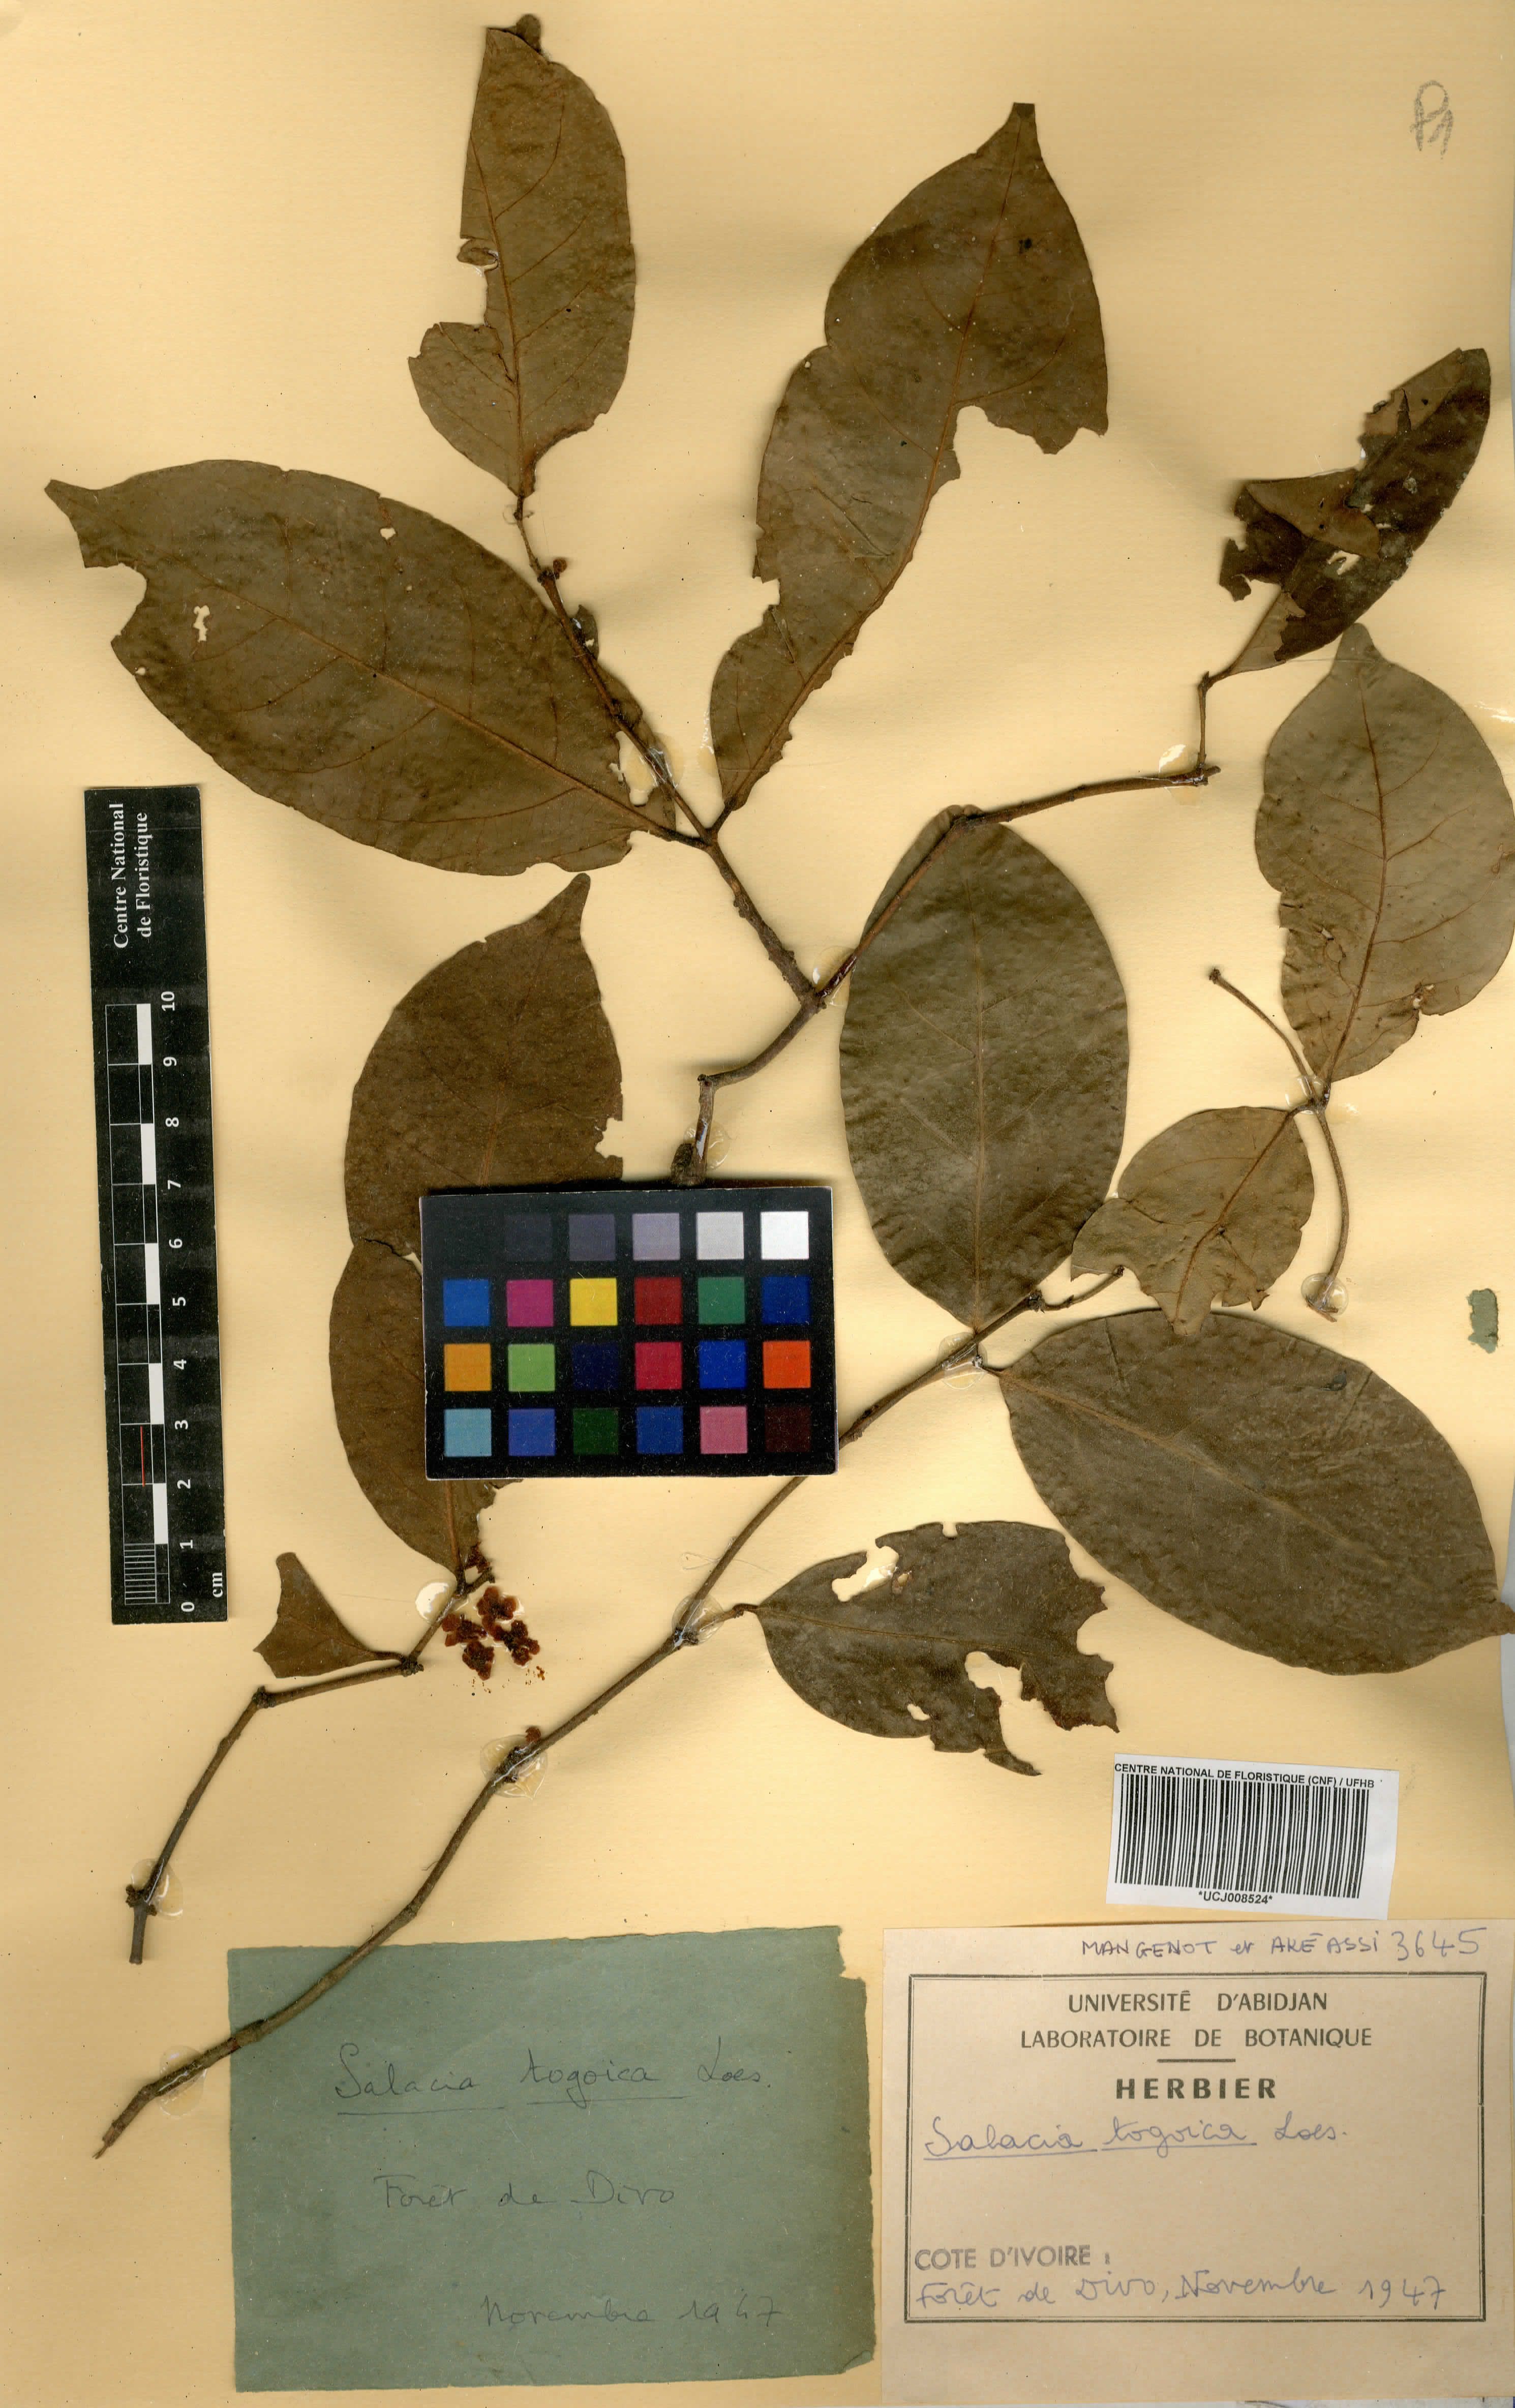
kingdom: Plantae
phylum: Tracheophyta
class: Magnoliopsida
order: Celastrales
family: Celastraceae
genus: Salacia
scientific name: Salacia togoica
